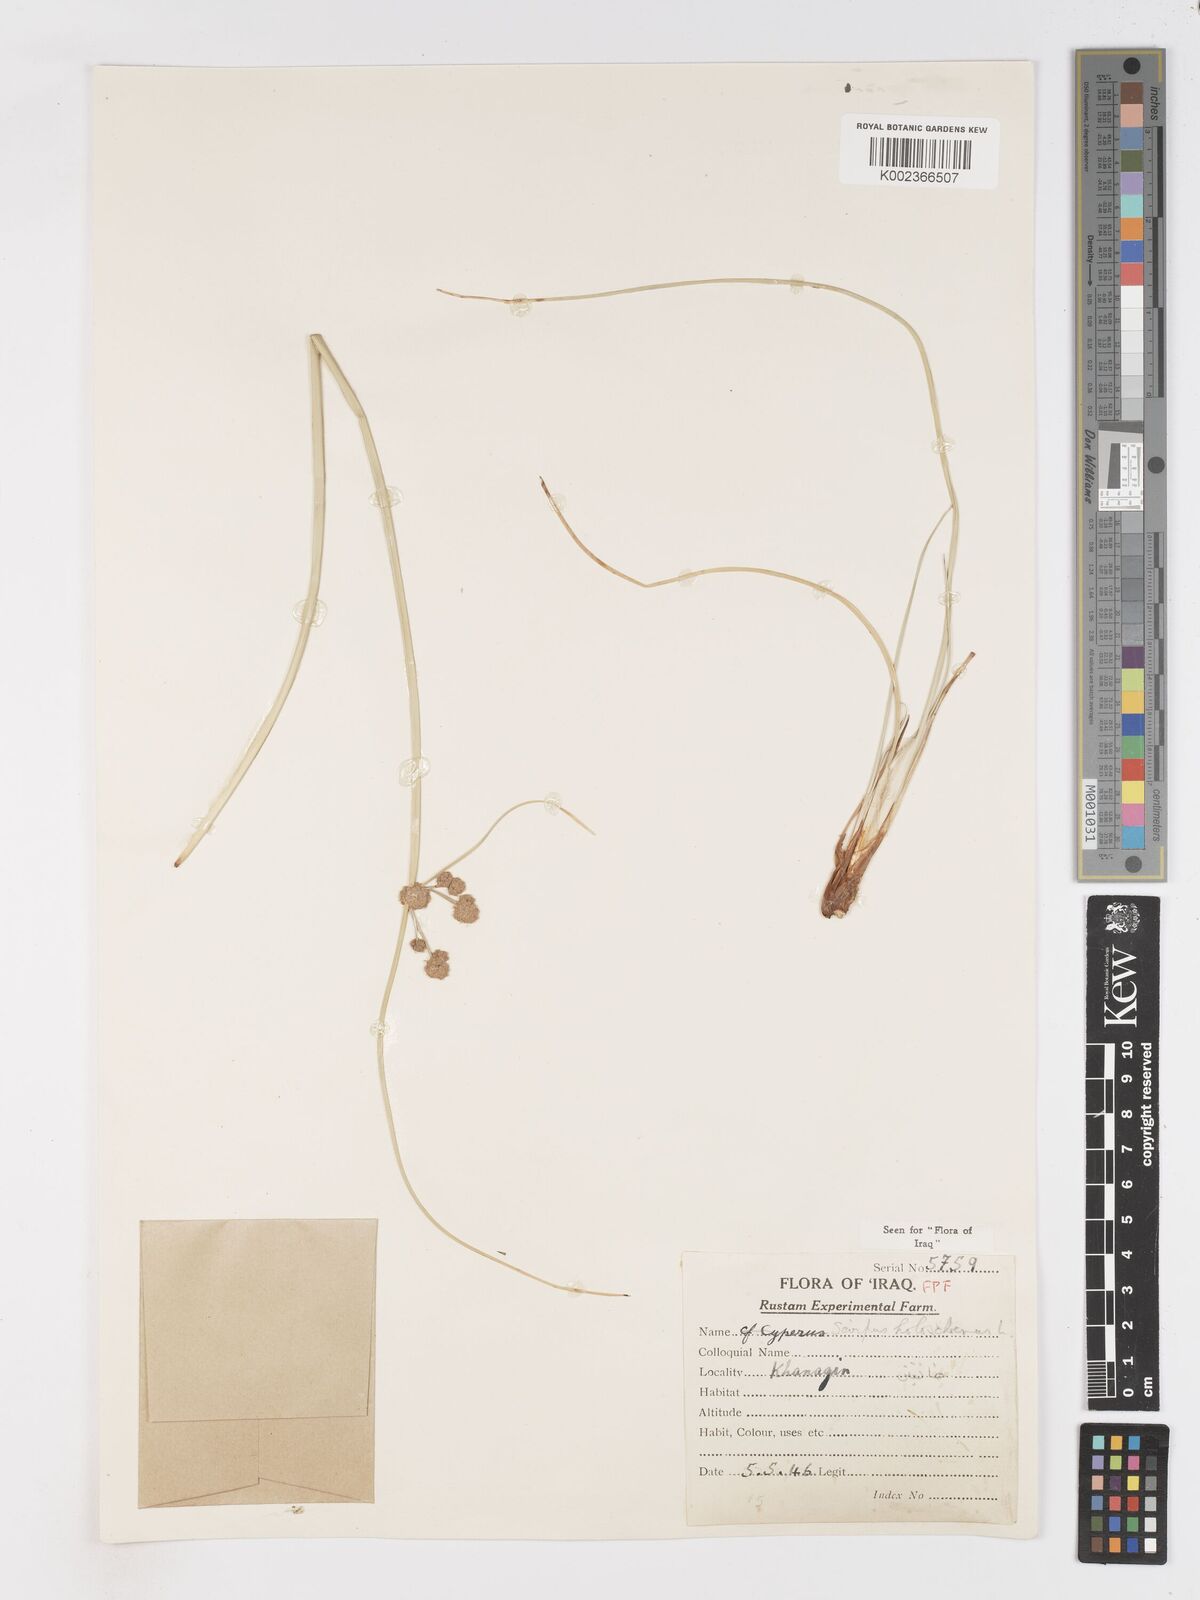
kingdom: Plantae
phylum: Tracheophyta
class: Liliopsida
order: Poales
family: Cyperaceae
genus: Scirpoides
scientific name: Scirpoides holoschoenus
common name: Round-headed club-rush
